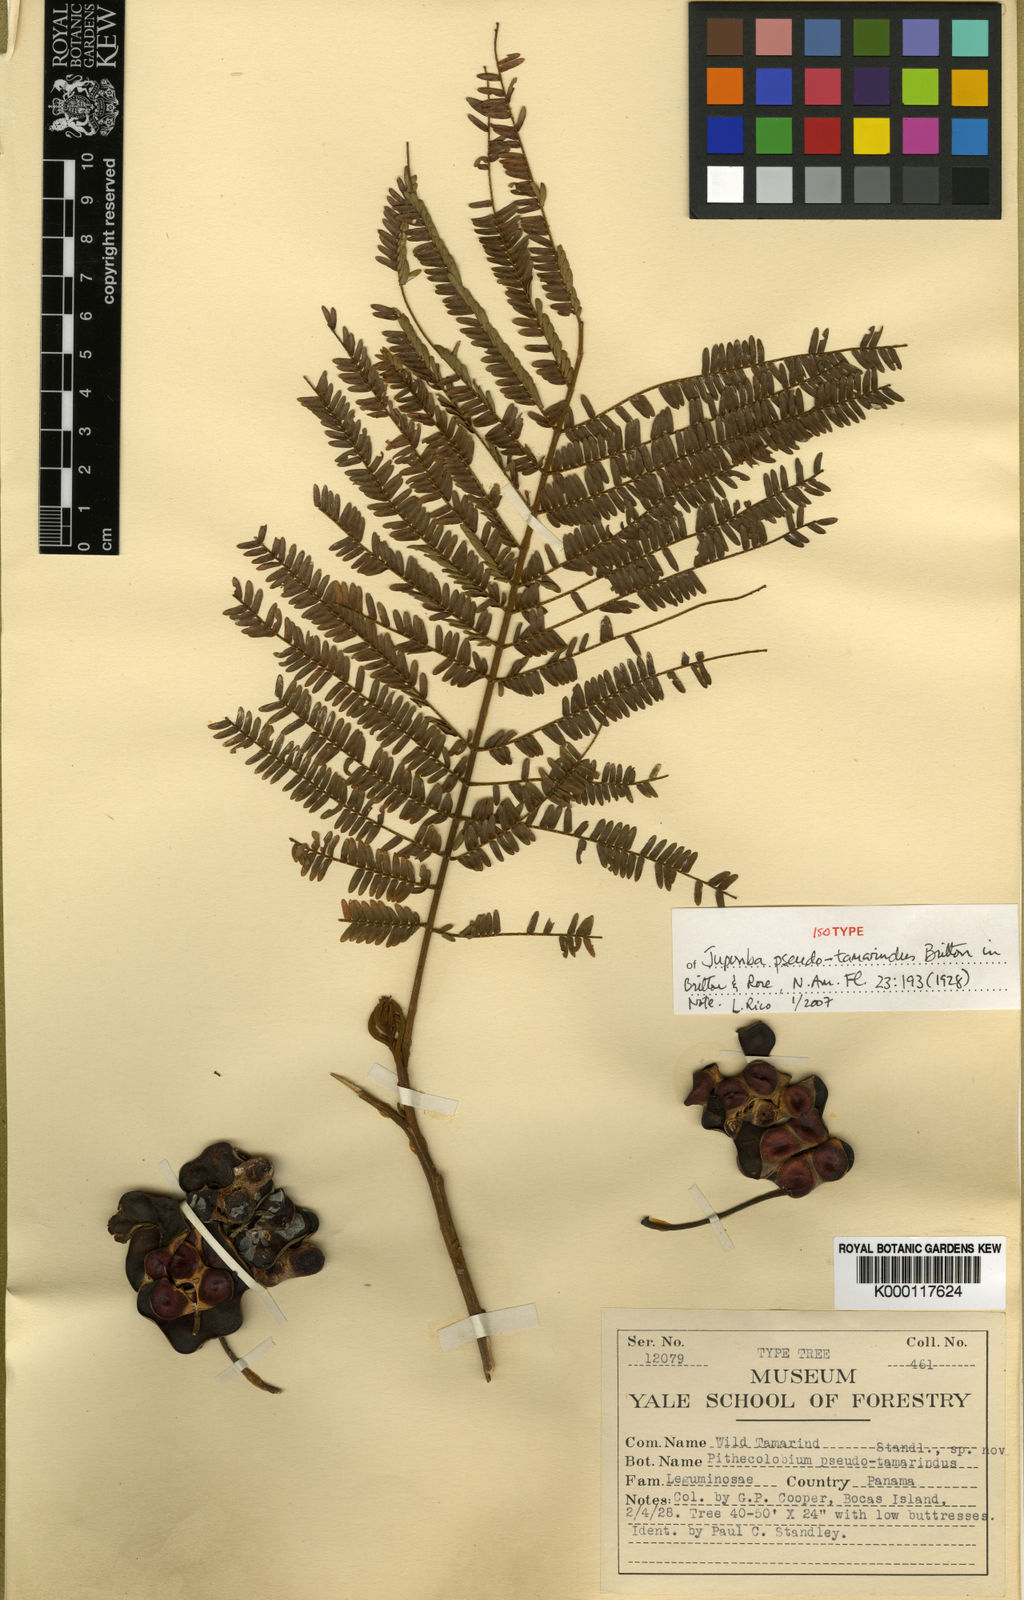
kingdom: Plantae
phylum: Tracheophyta
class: Magnoliopsida
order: Fabales
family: Fabaceae
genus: Jupunba
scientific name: Jupunba idiopoda
